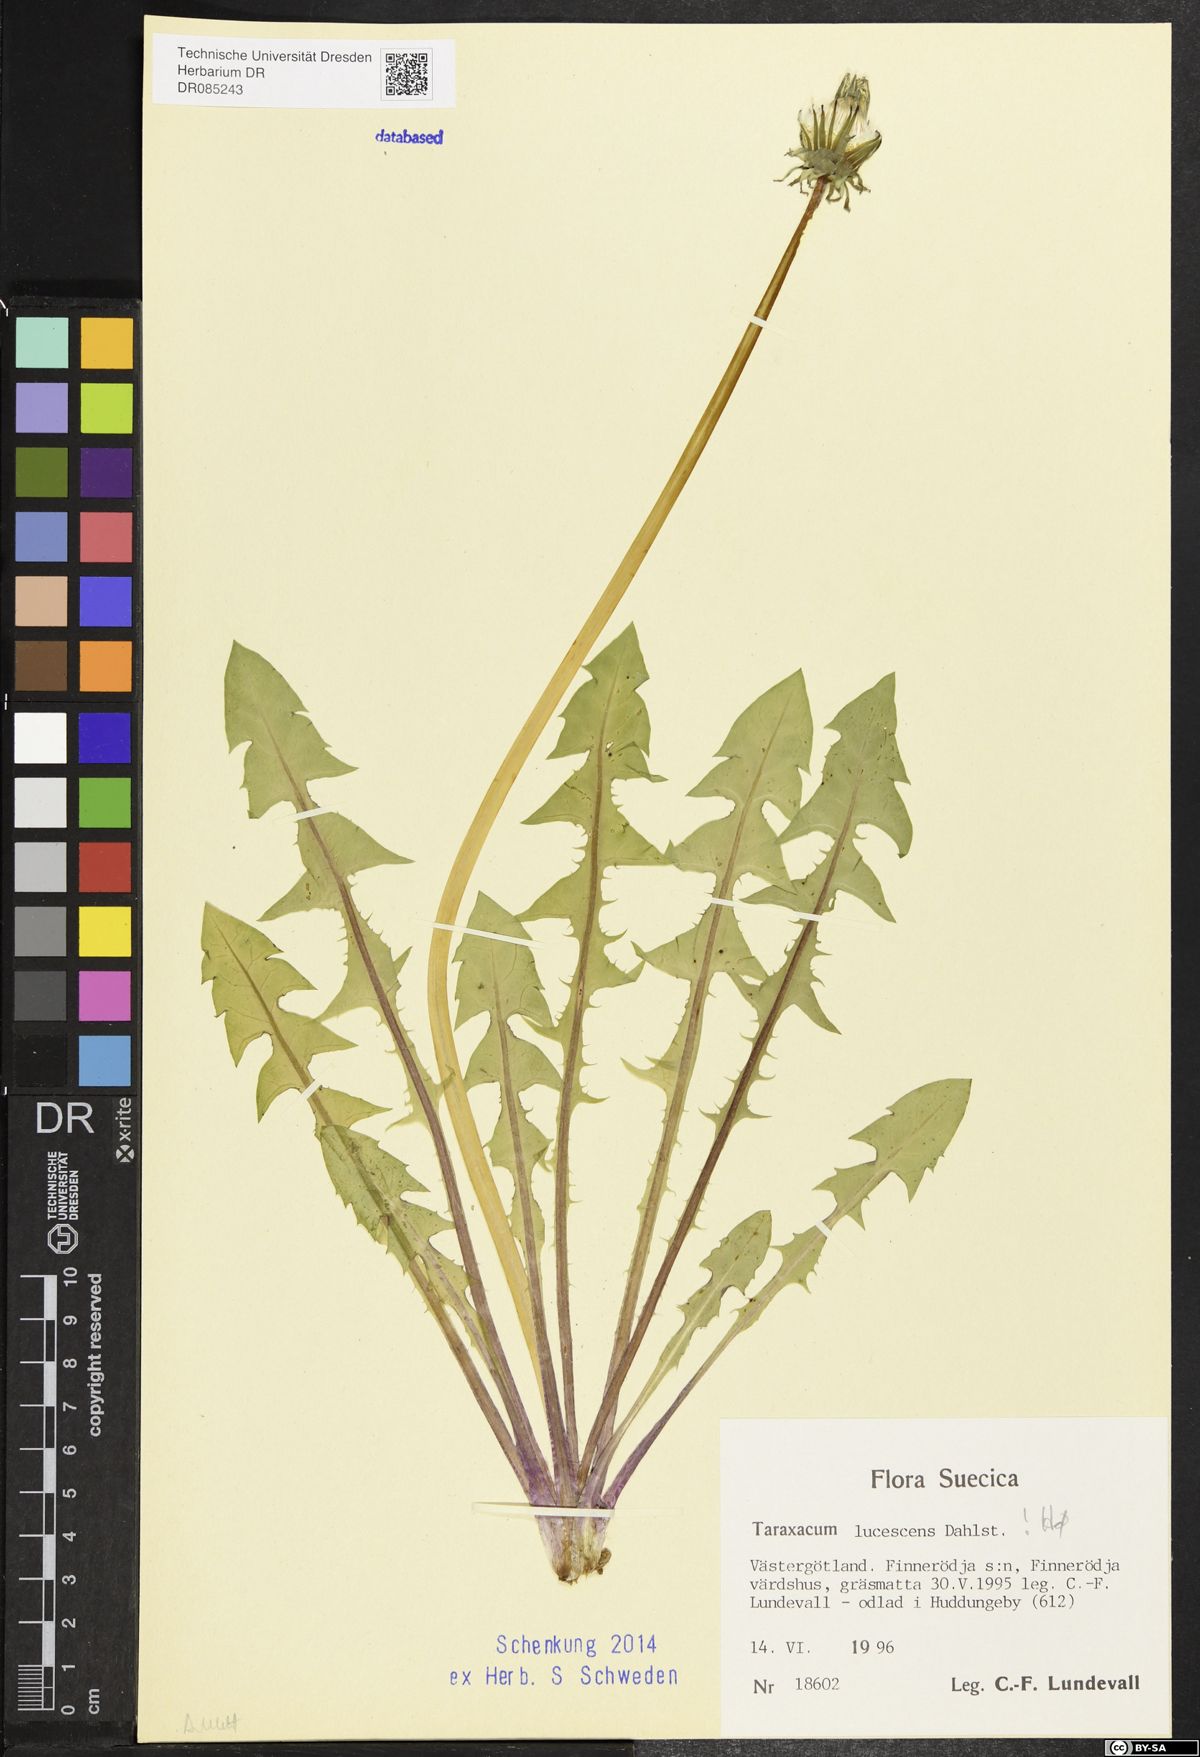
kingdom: Plantae
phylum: Tracheophyta
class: Magnoliopsida
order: Asterales
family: Asteraceae
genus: Taraxacum
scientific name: Taraxacum lucescens
